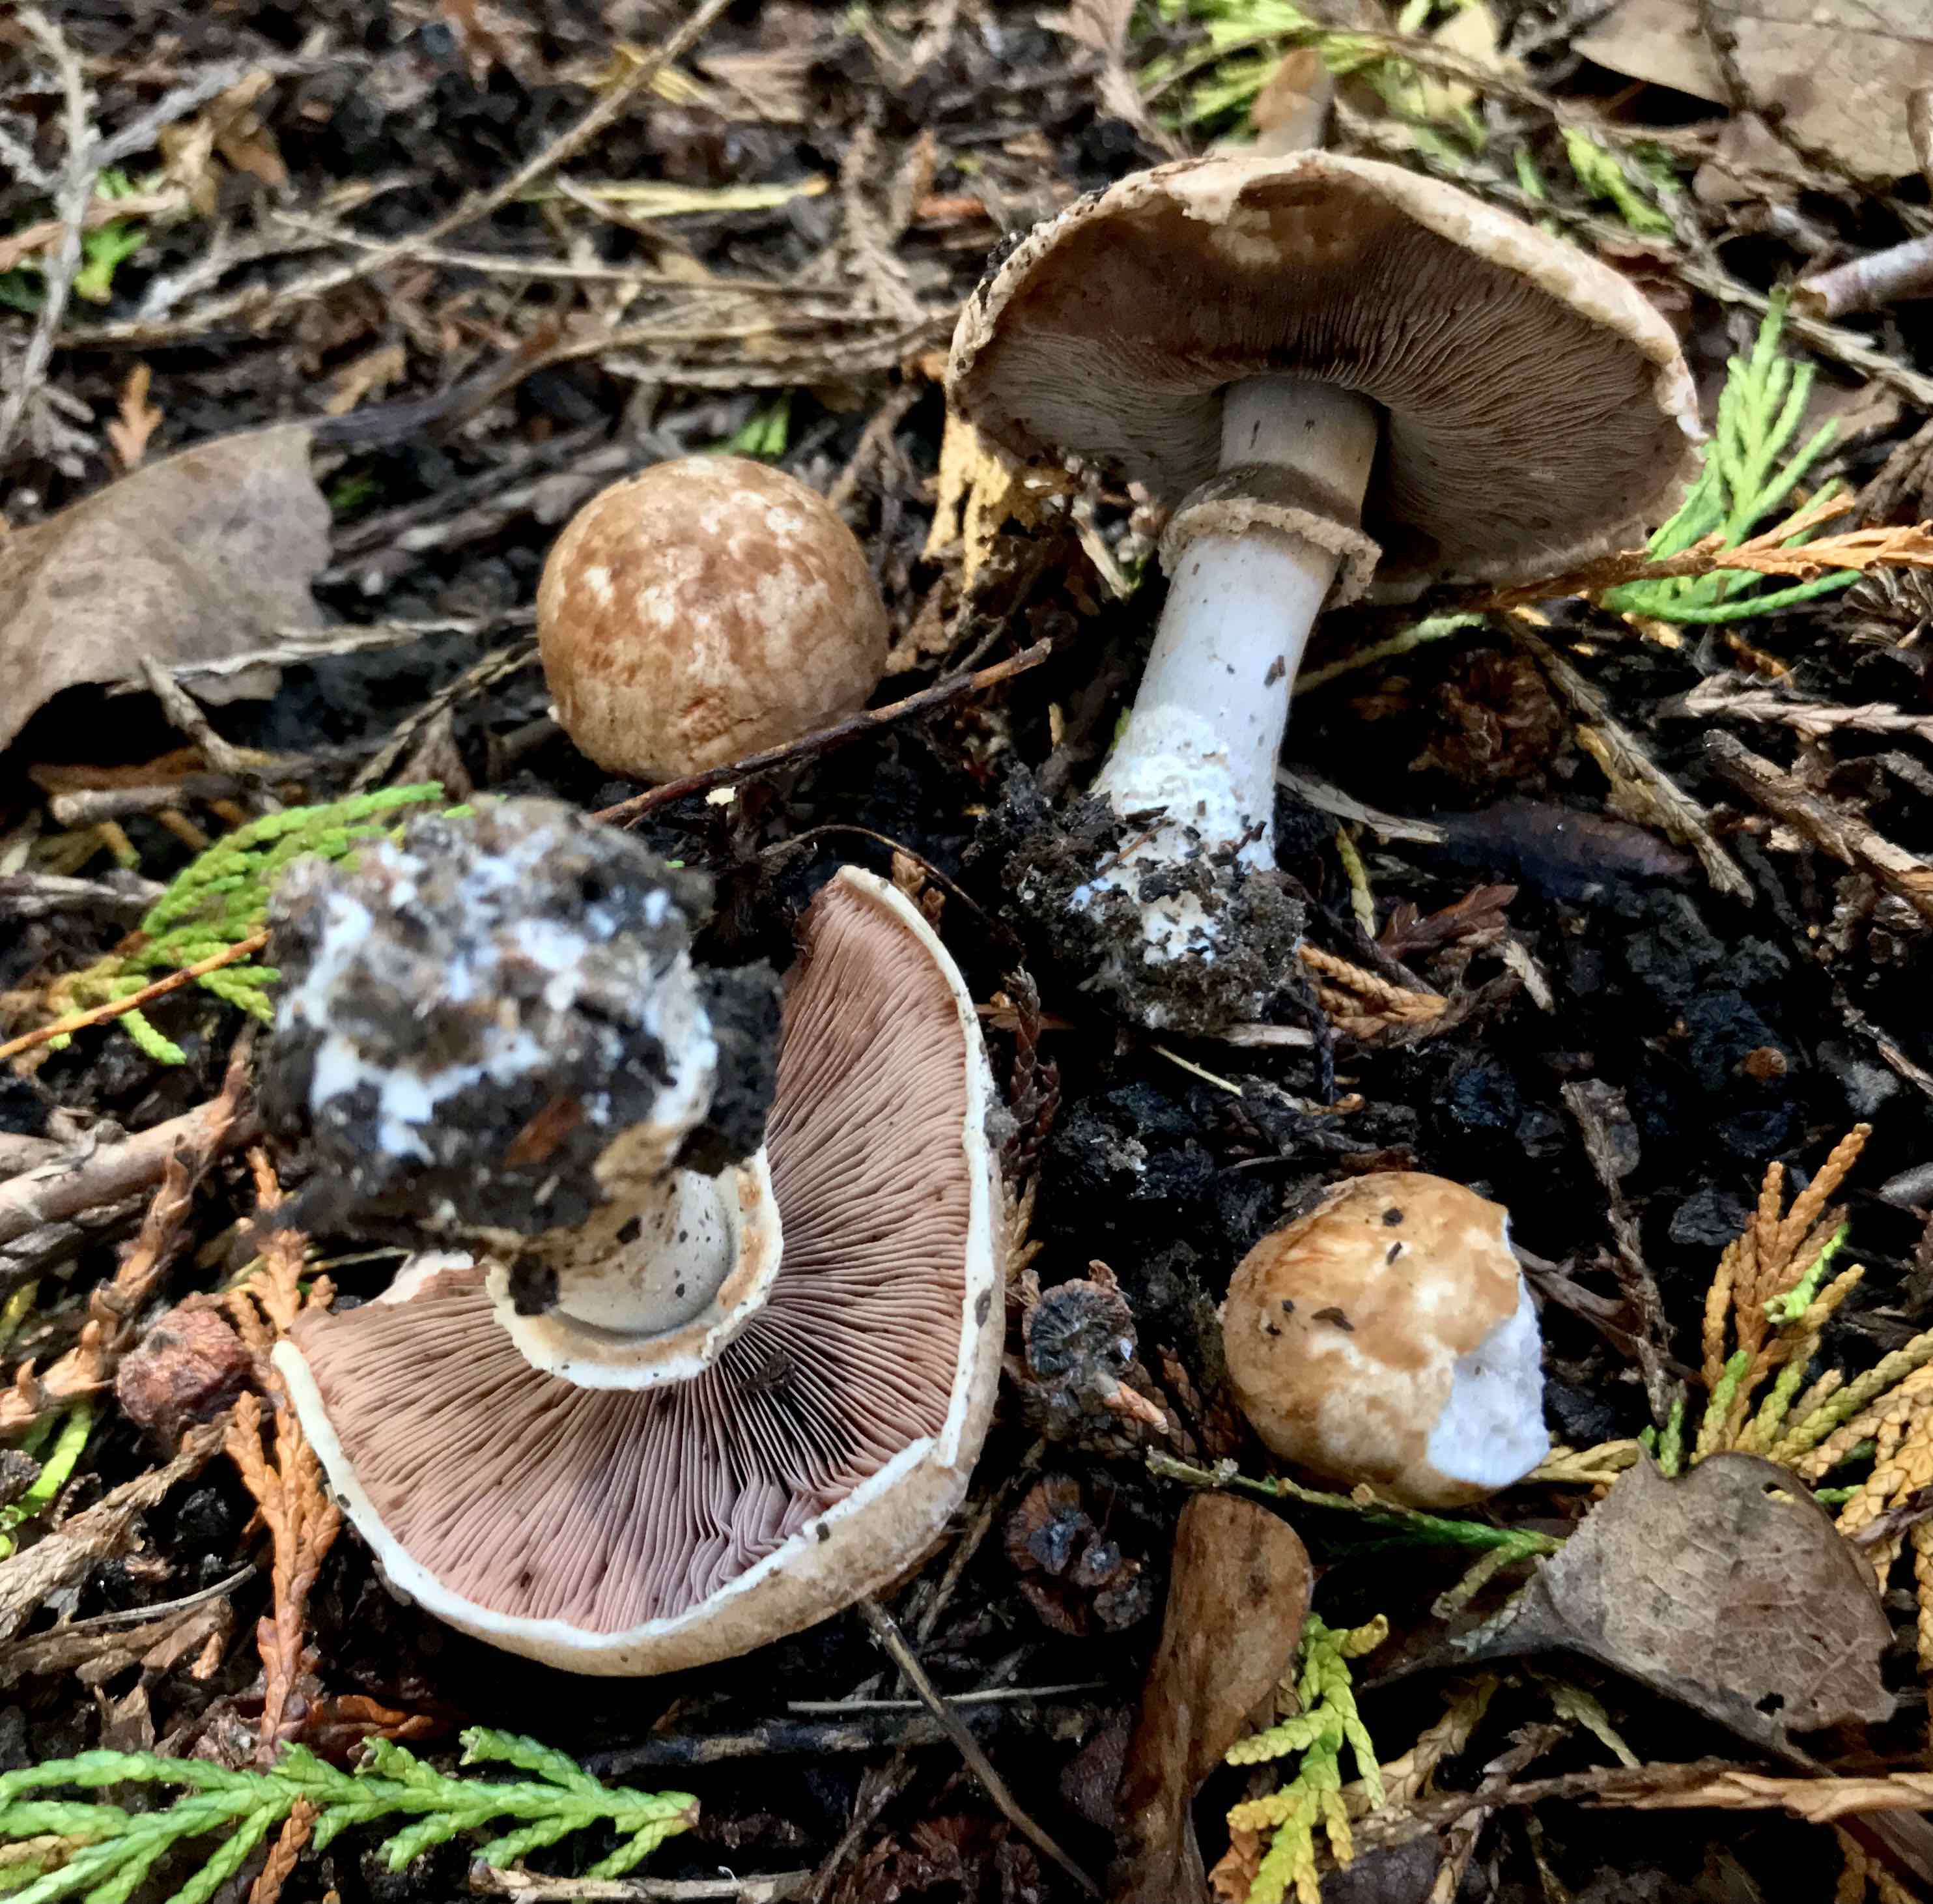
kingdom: Fungi
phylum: Basidiomycota
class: Agaricomycetes
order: Agaricales
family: Agaricaceae
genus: Agaricus
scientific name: Agaricus
